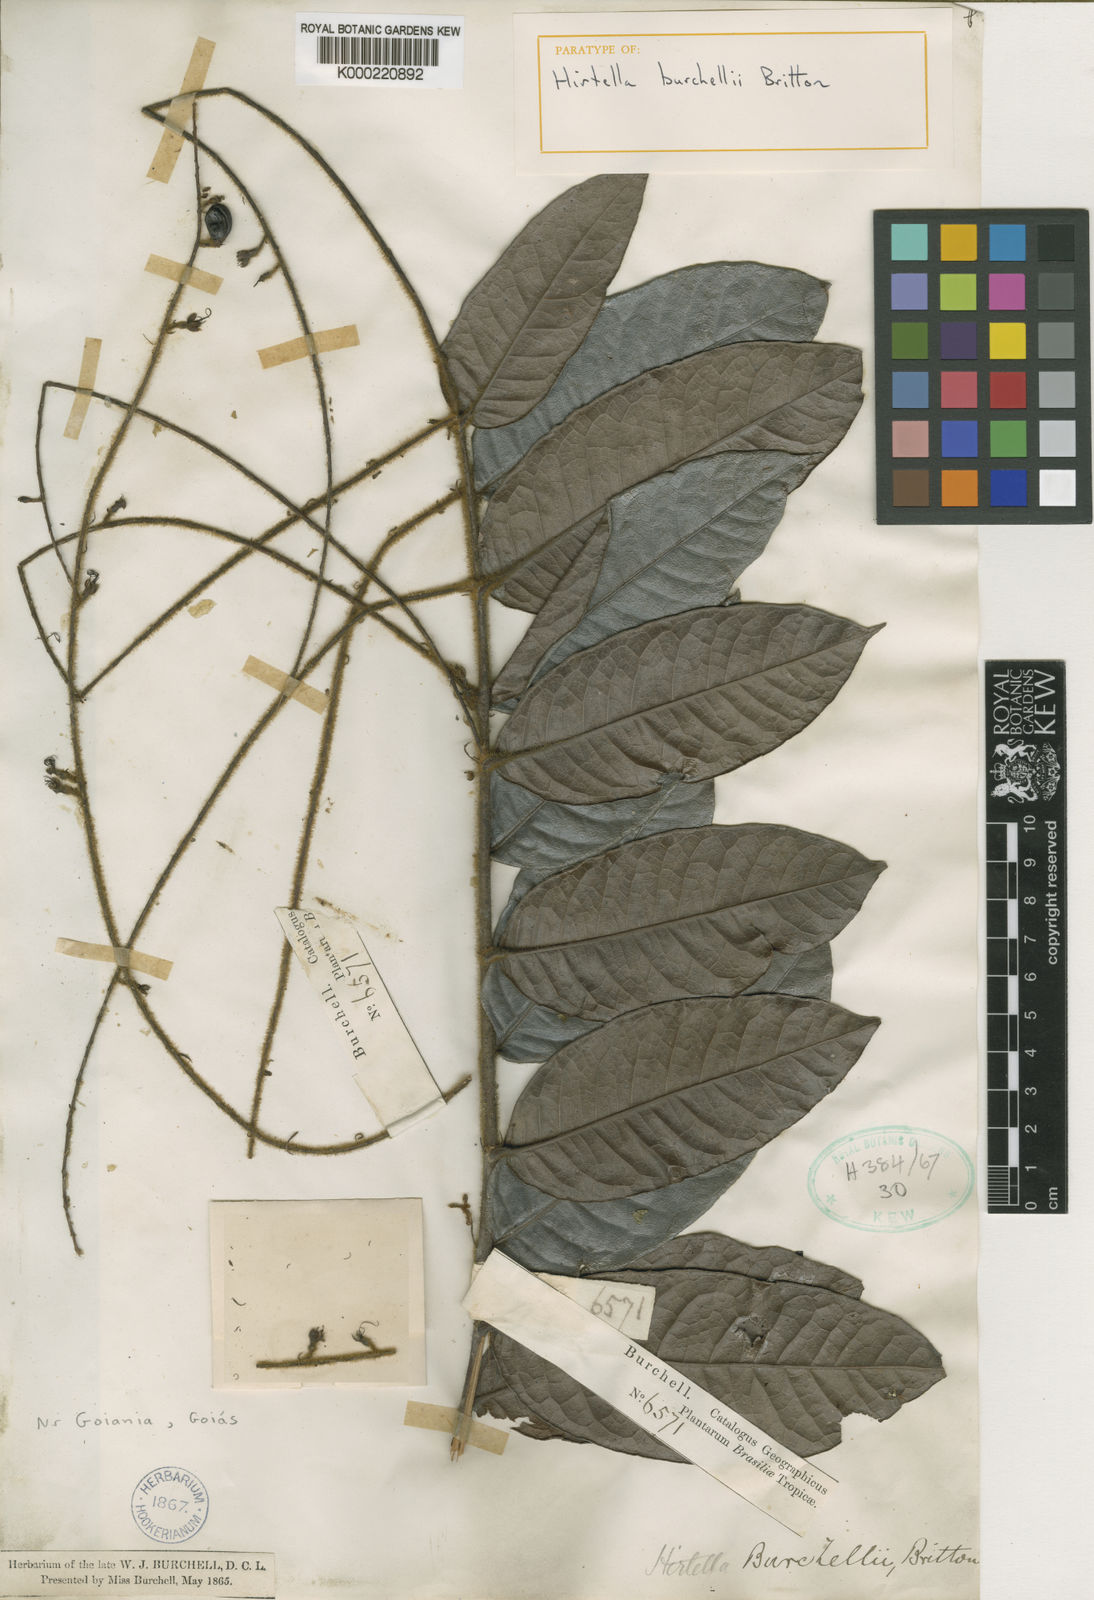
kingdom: Plantae
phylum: Tracheophyta
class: Magnoliopsida
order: Malpighiales
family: Chrysobalanaceae
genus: Hirtella
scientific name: Hirtella burchellii
